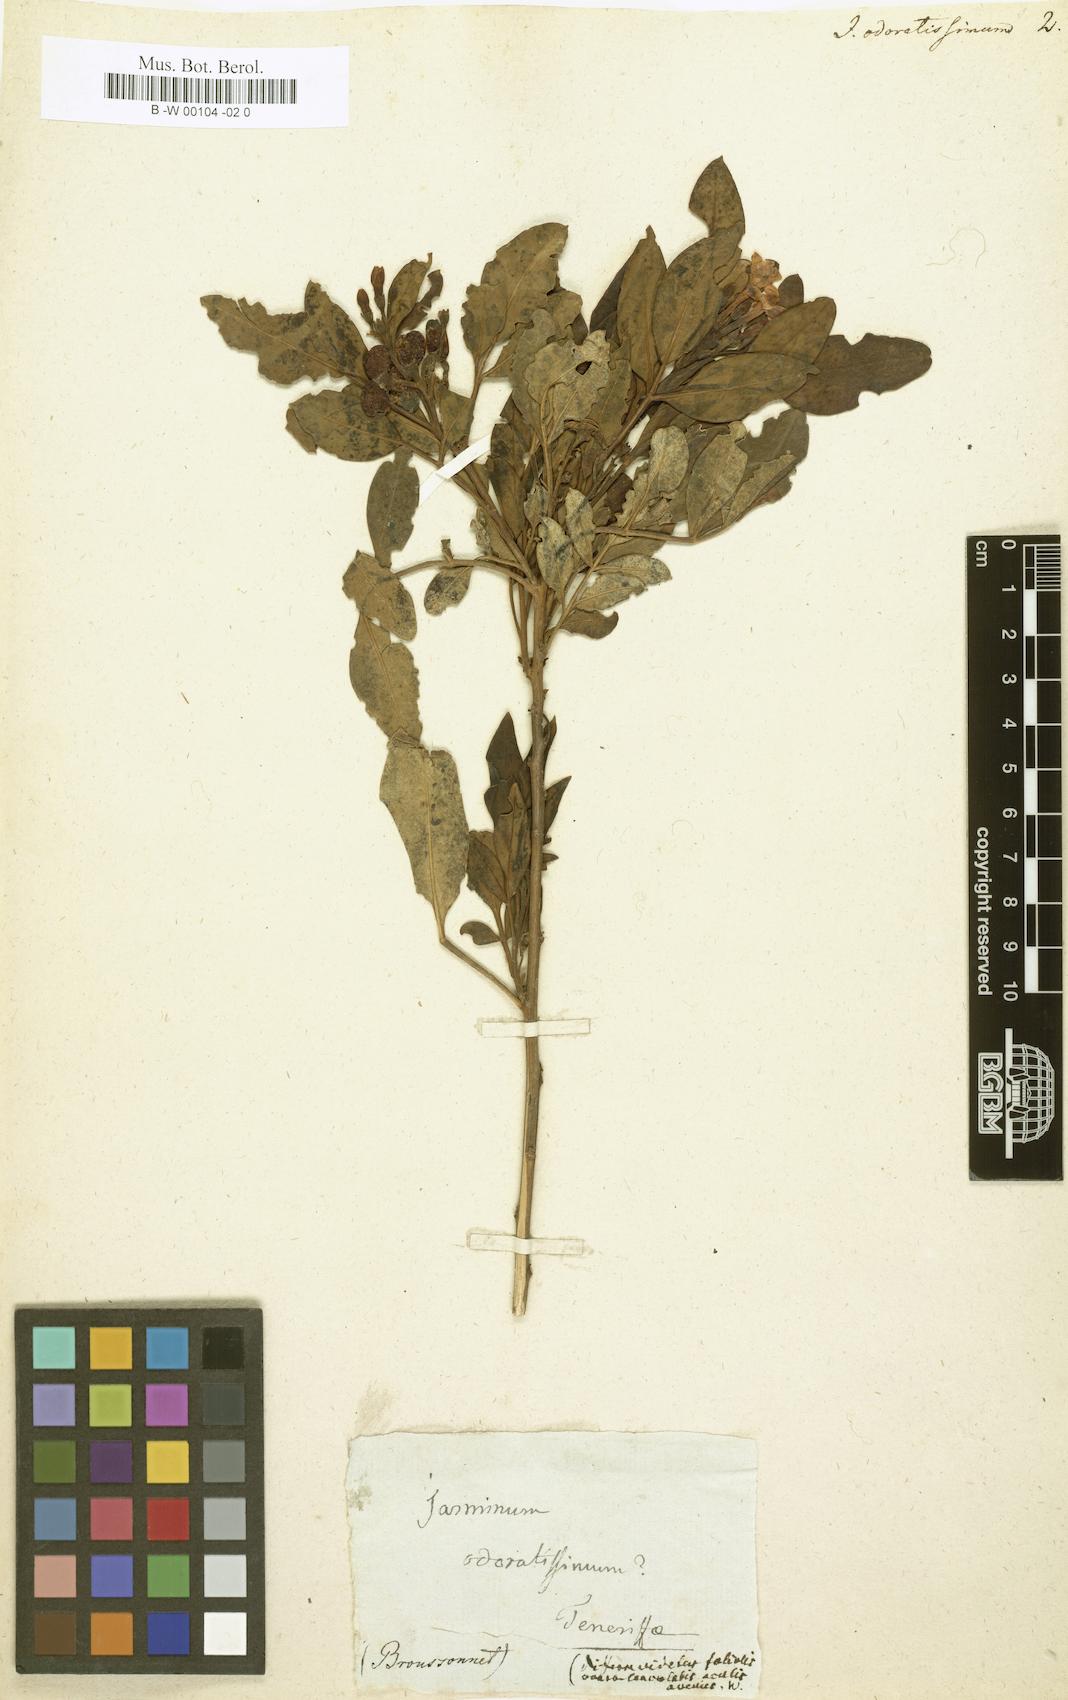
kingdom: Plantae
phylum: Tracheophyta
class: Magnoliopsida
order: Lamiales
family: Oleaceae
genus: Chrysojasminum
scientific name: Chrysojasminum odoratissimum
